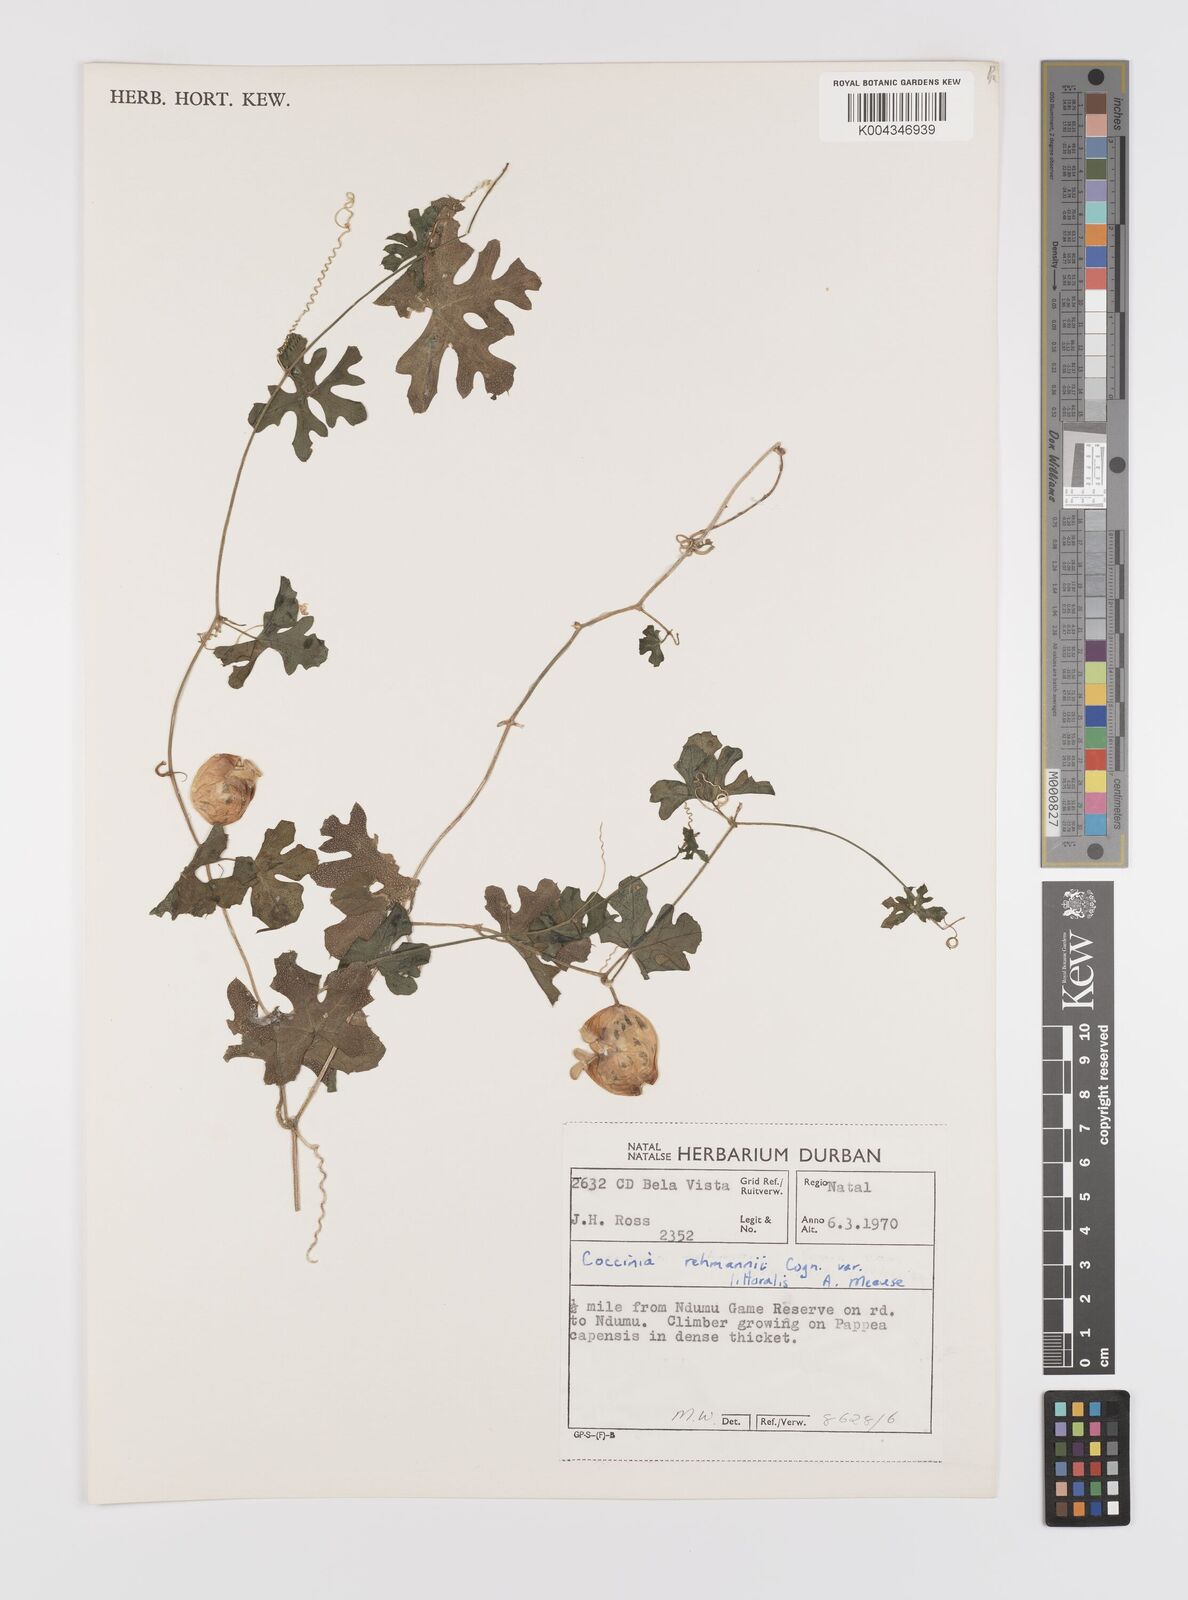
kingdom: Plantae
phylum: Tracheophyta
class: Magnoliopsida
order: Cucurbitales
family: Cucurbitaceae
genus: Coccinia
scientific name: Coccinia rehmannii
